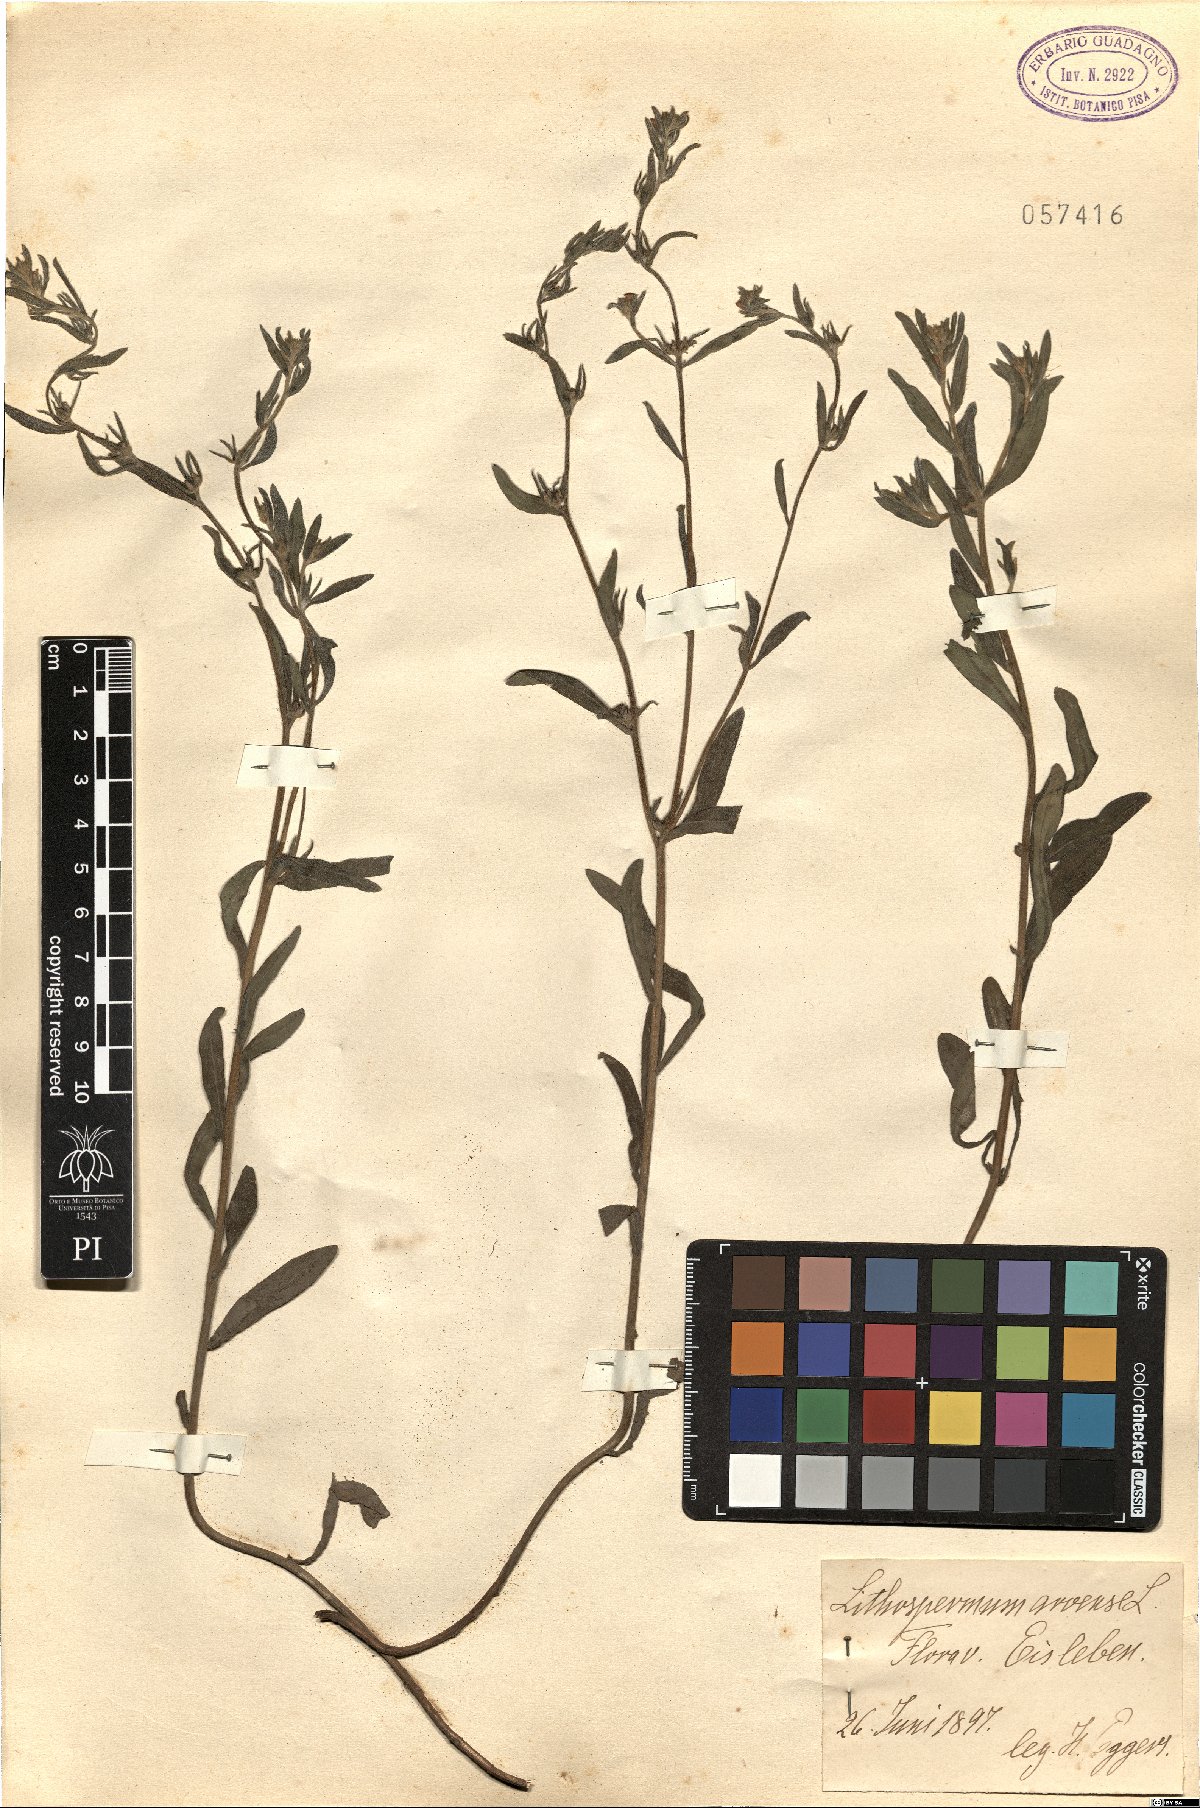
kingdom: Plantae
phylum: Tracheophyta
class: Magnoliopsida
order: Boraginales
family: Boraginaceae
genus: Buglossoides
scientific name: Buglossoides arvensis
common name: Corn gromwell
